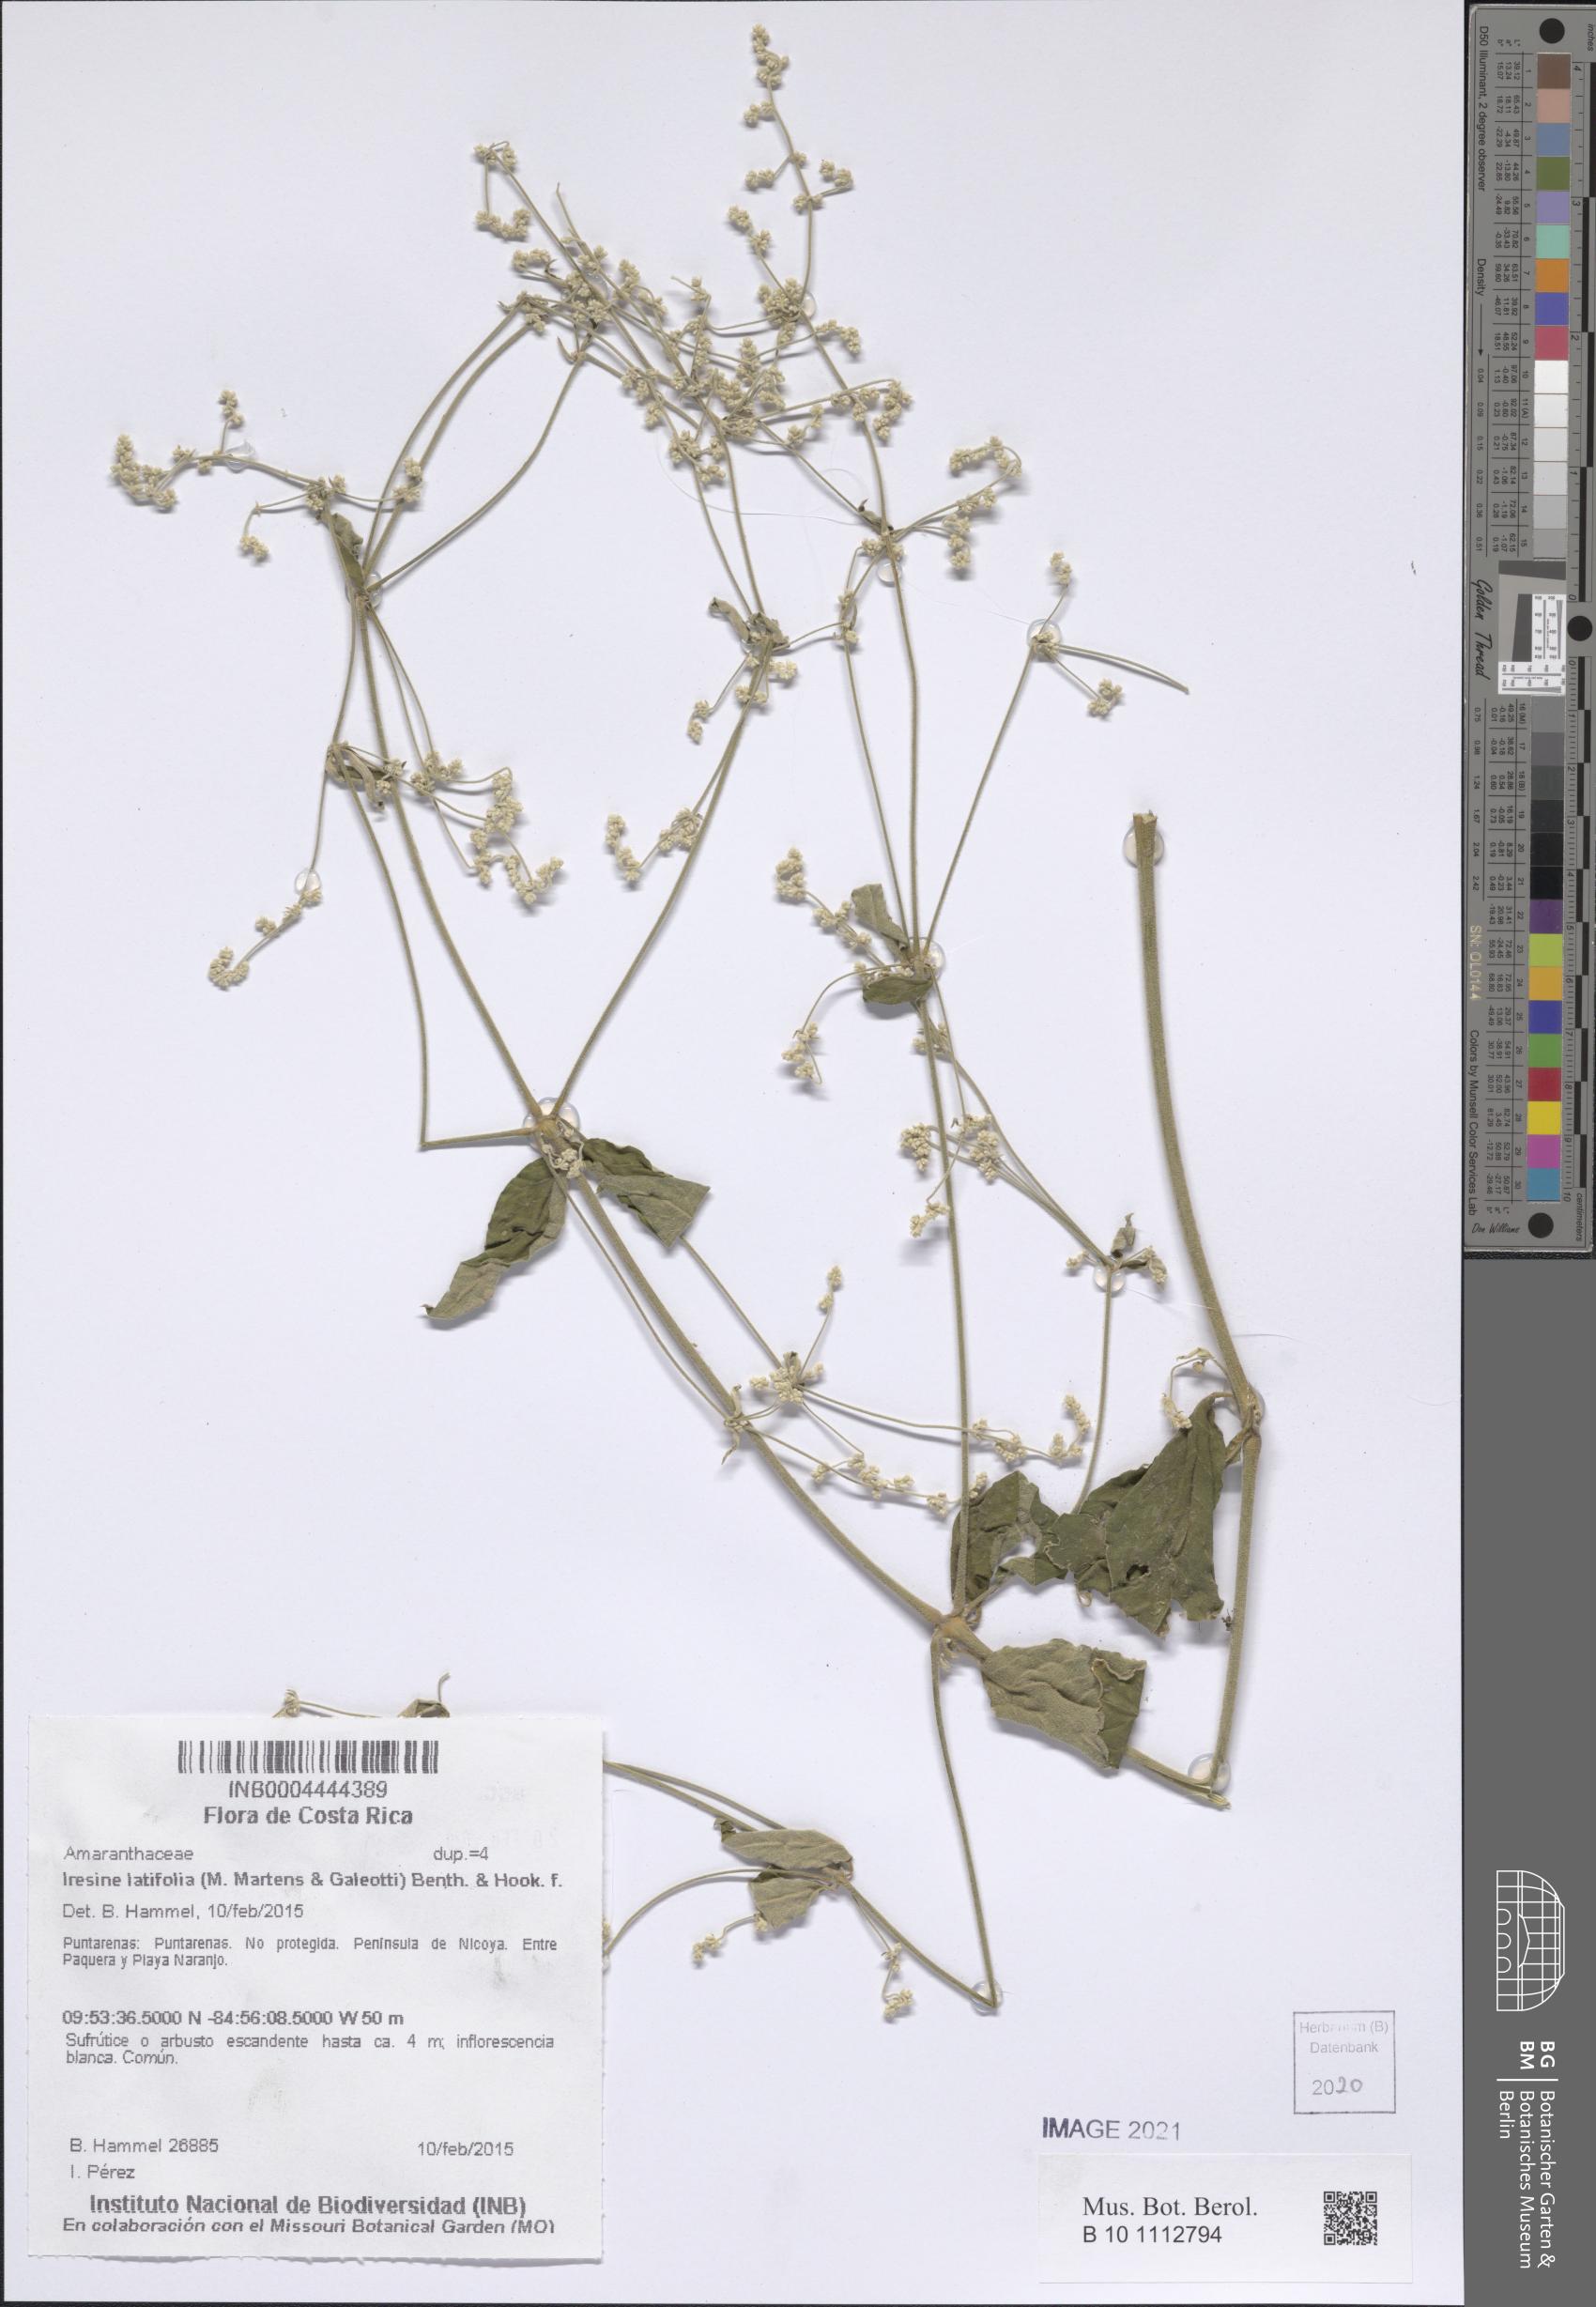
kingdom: Plantae
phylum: Tracheophyta
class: Magnoliopsida
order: Caryophyllales
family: Amaranthaceae
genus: Iresine
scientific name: Iresine latifolia
